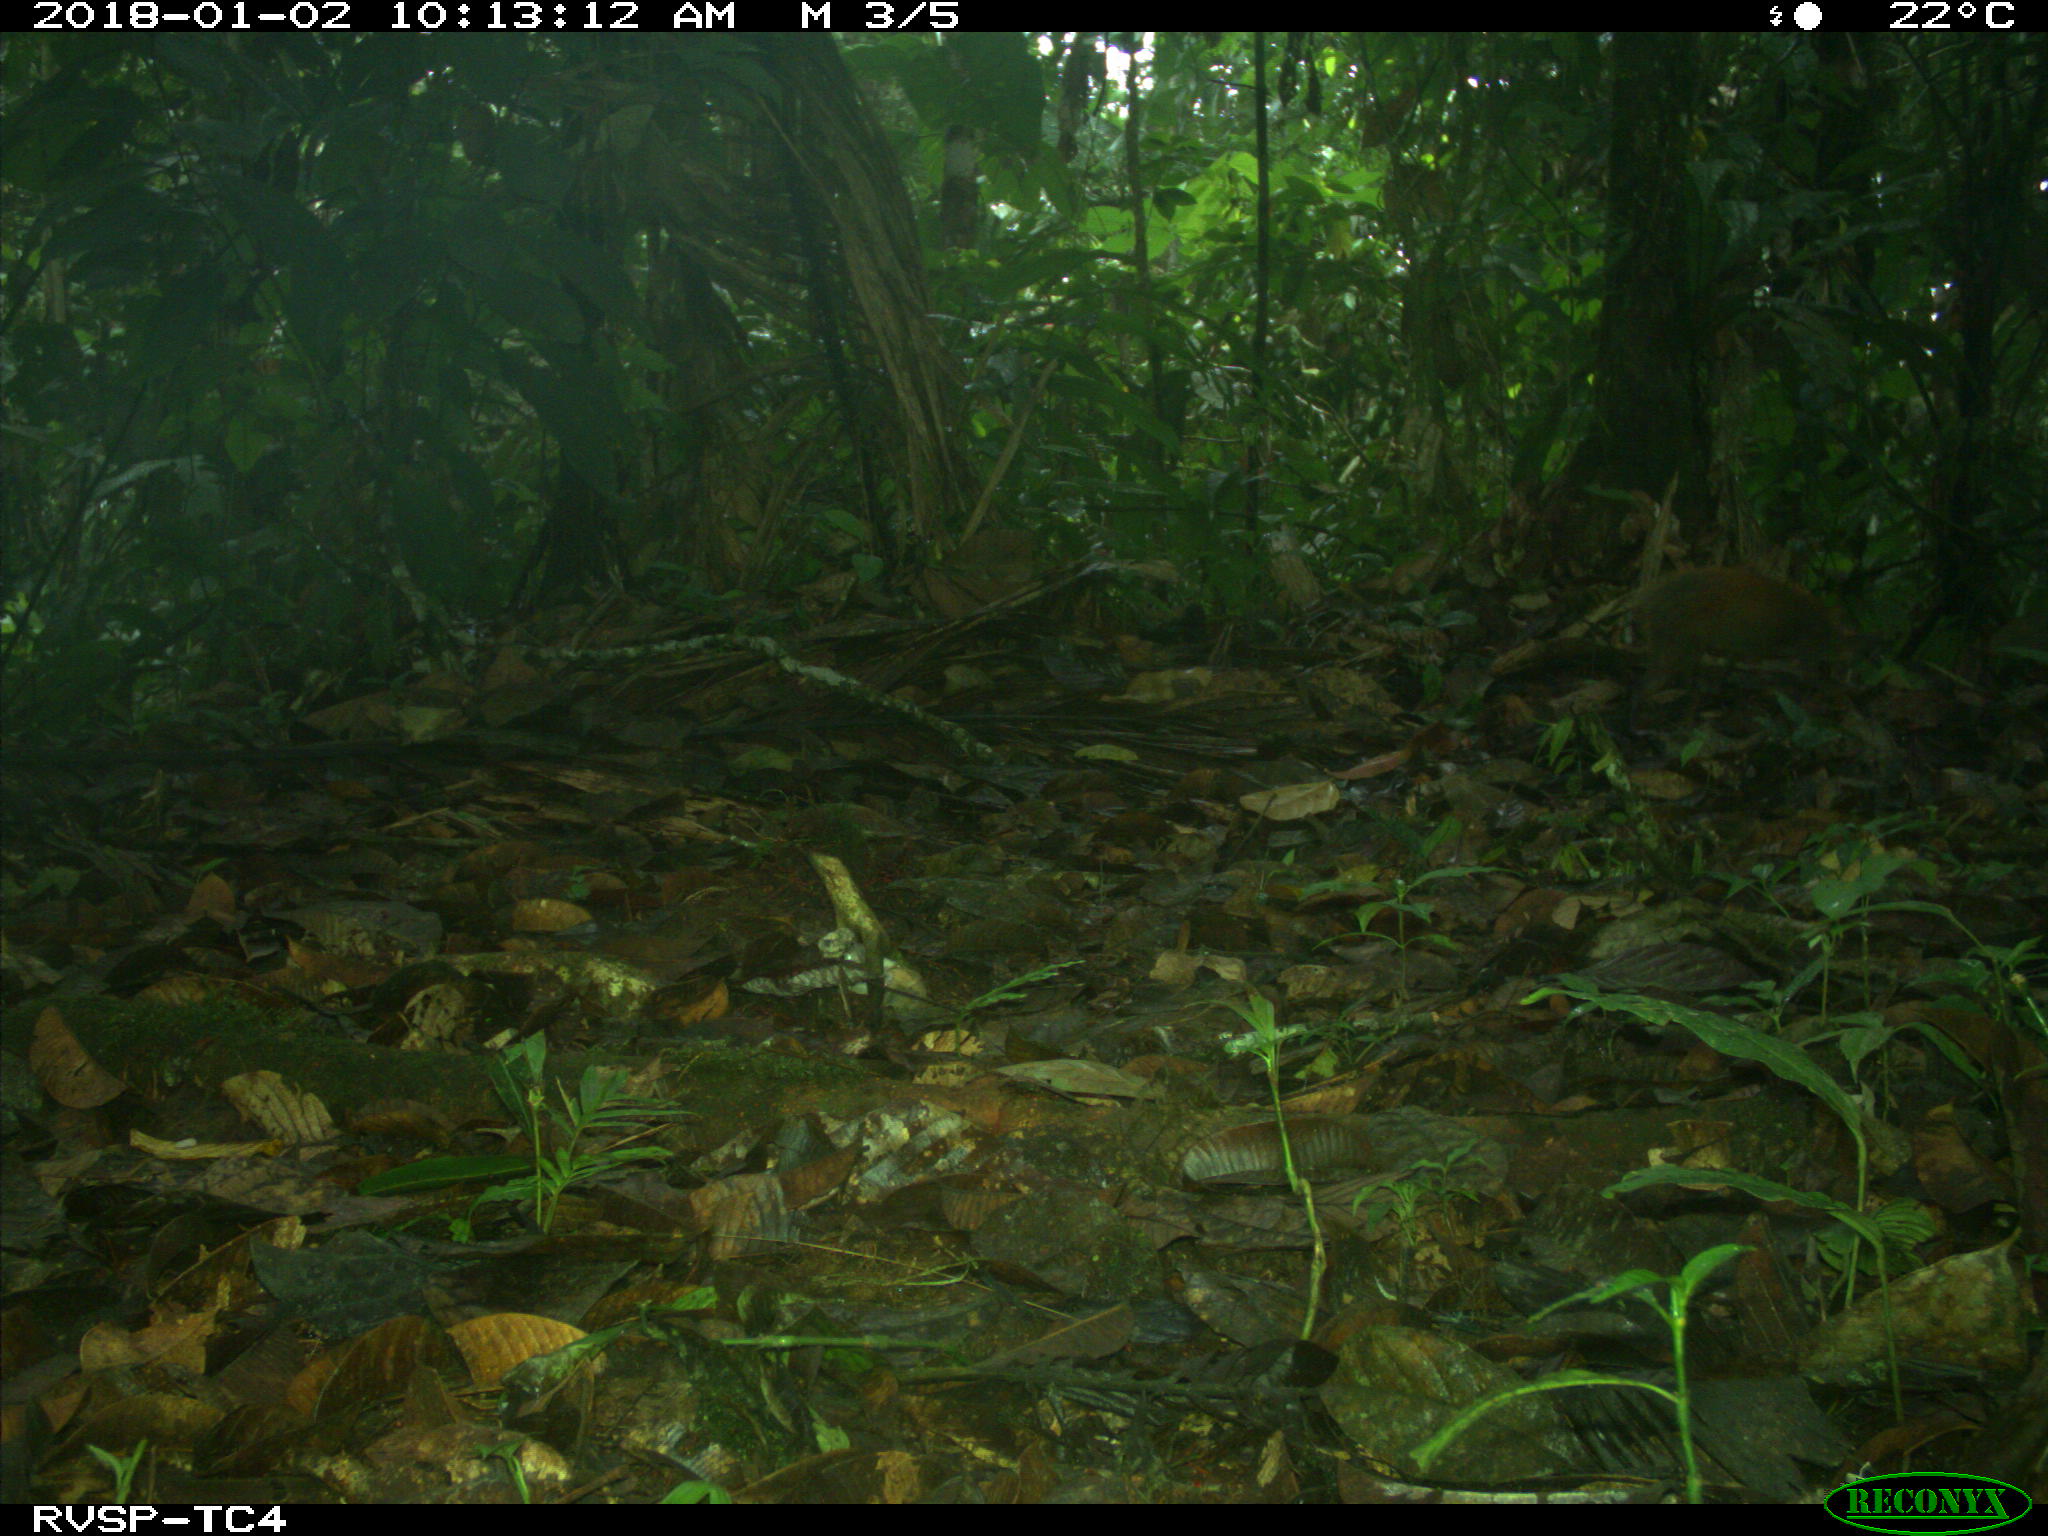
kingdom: Animalia
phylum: Chordata
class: Mammalia
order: Rodentia
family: Dasyproctidae
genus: Dasyprocta
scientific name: Dasyprocta punctata
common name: Central american agouti
